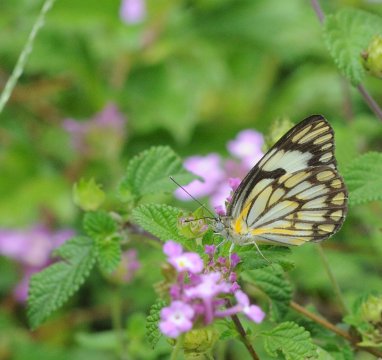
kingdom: Animalia
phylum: Arthropoda
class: Insecta
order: Lepidoptera
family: Pieridae
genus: Belenois
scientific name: Belenois aurota
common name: Pioneer White
